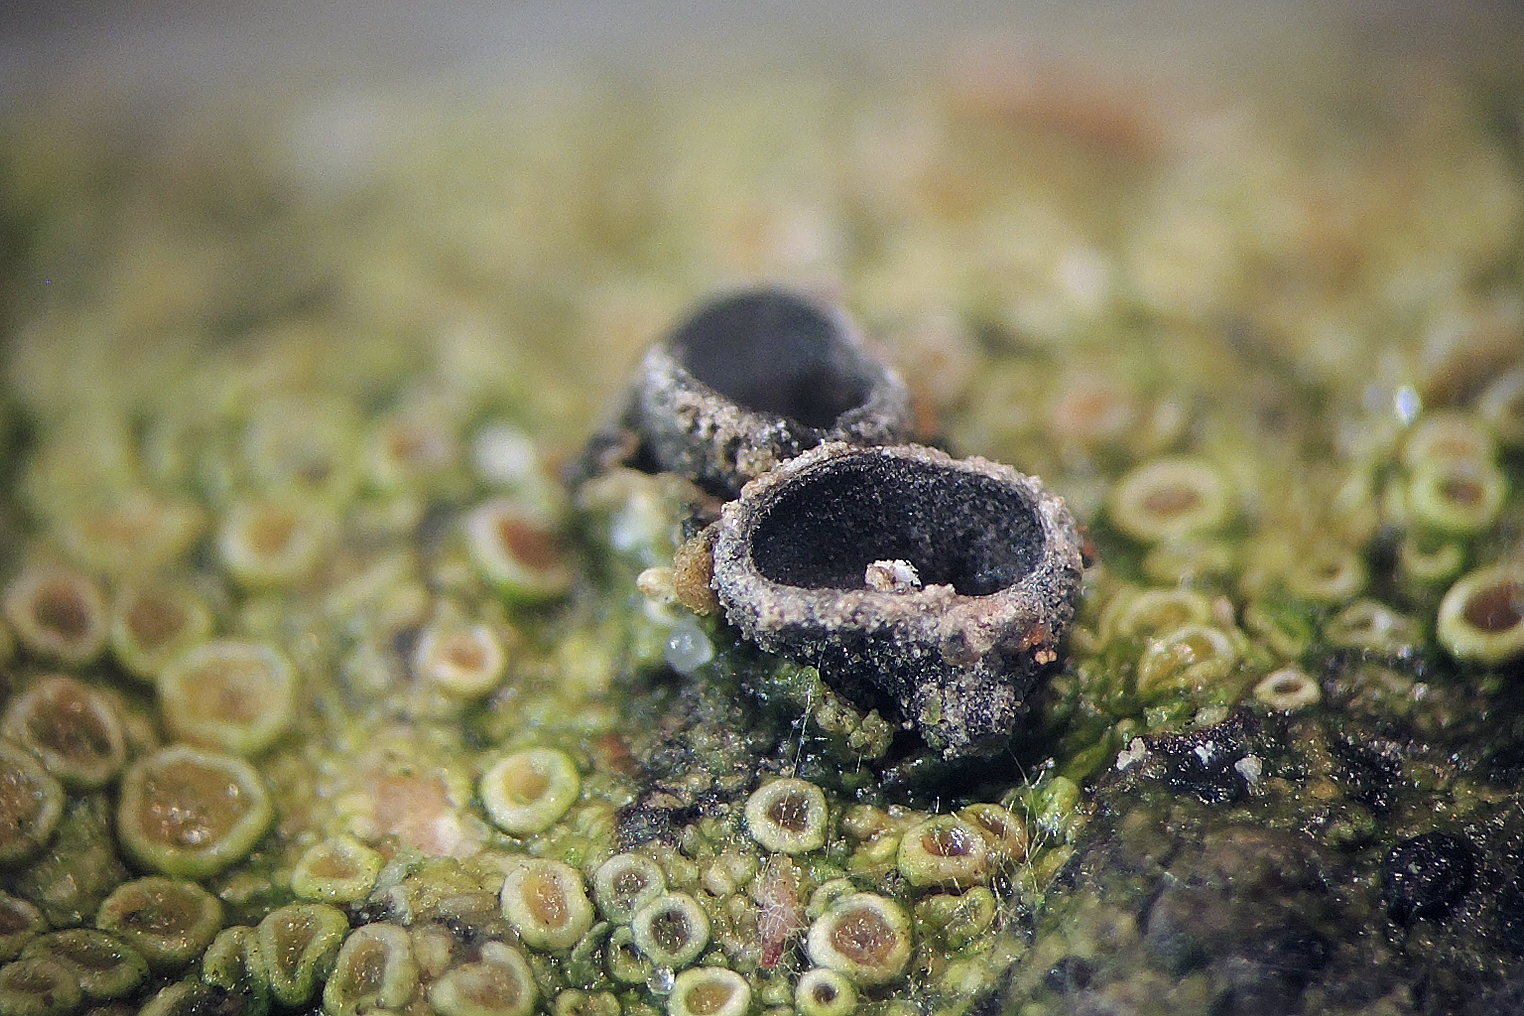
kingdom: Fungi
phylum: Ascomycota
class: Leotiomycetes
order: Helotiales
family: Sclerotiniaceae
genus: Sclerencoelia
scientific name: Sclerencoelia fraxinicola
